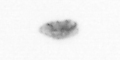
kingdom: Animalia
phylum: Arthropoda
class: Copepoda
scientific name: Copepoda
